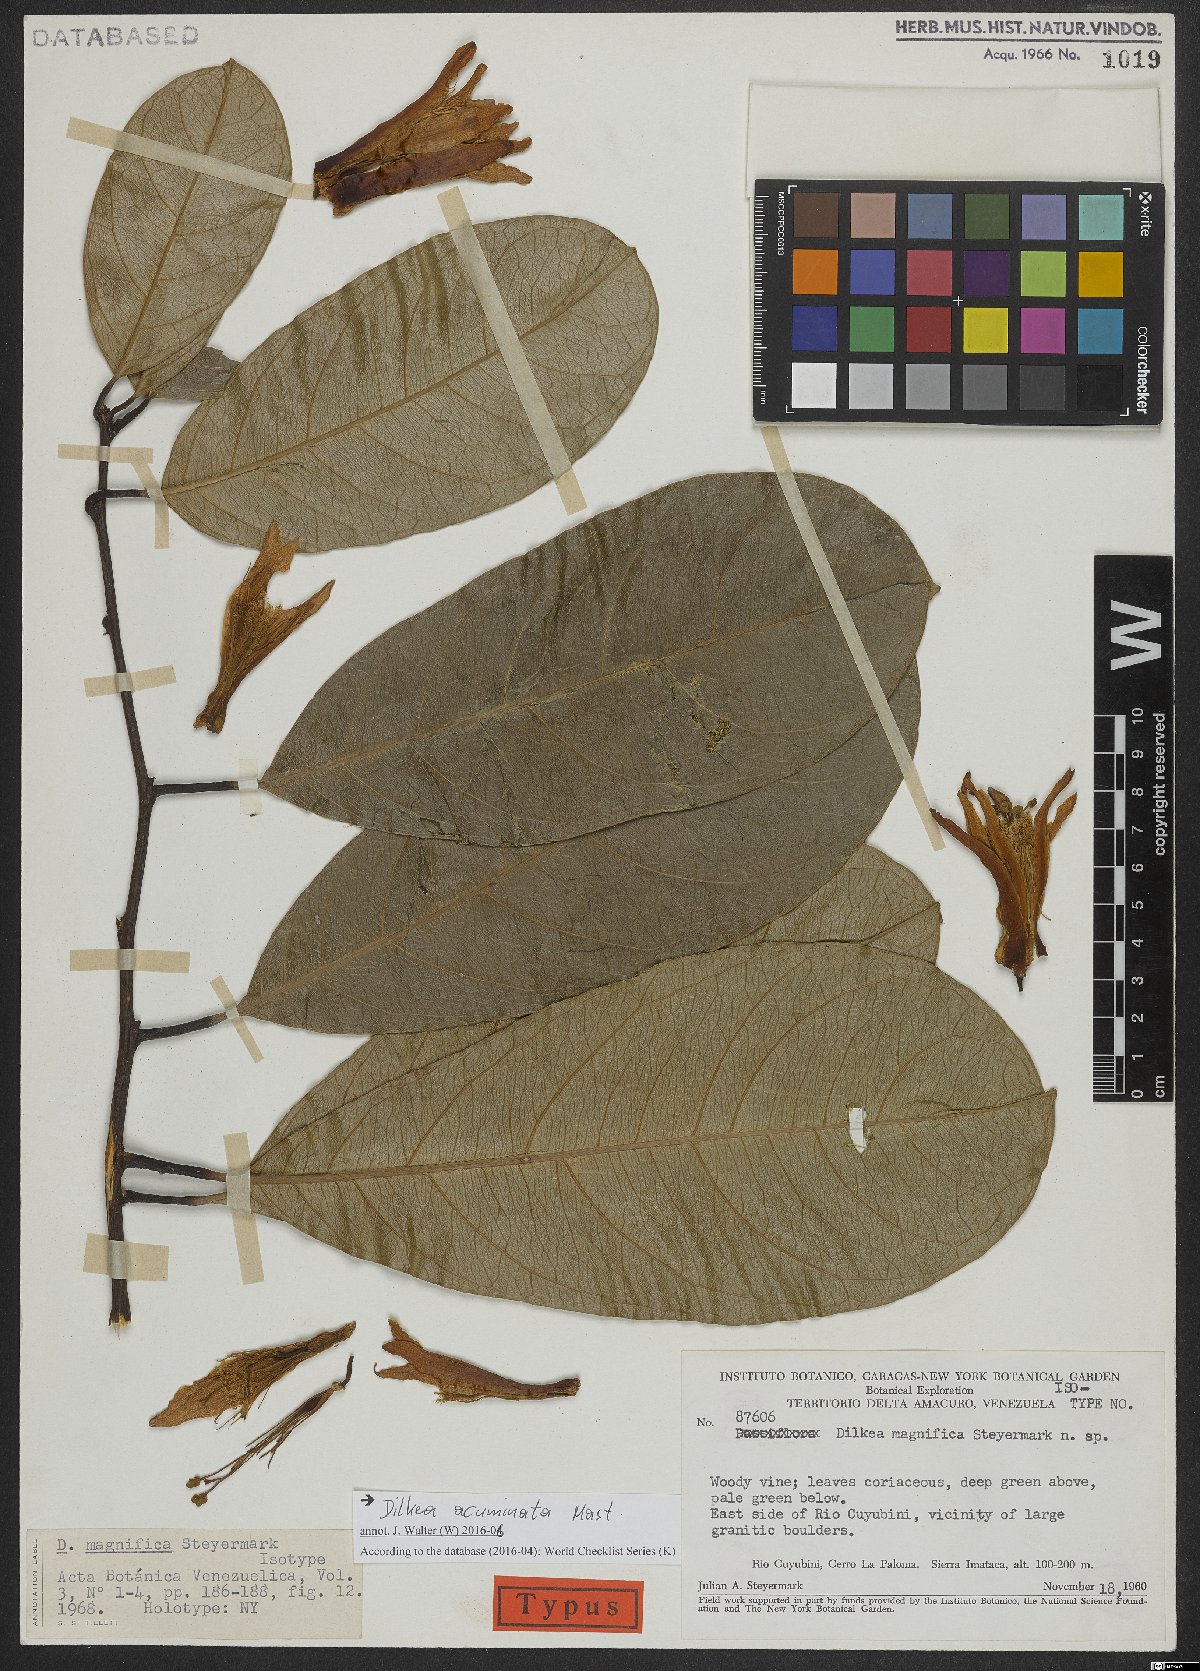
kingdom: Plantae
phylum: Tracheophyta
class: Magnoliopsida
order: Malpighiales
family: Passifloraceae
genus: Dilkea
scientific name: Dilkea acuminata
